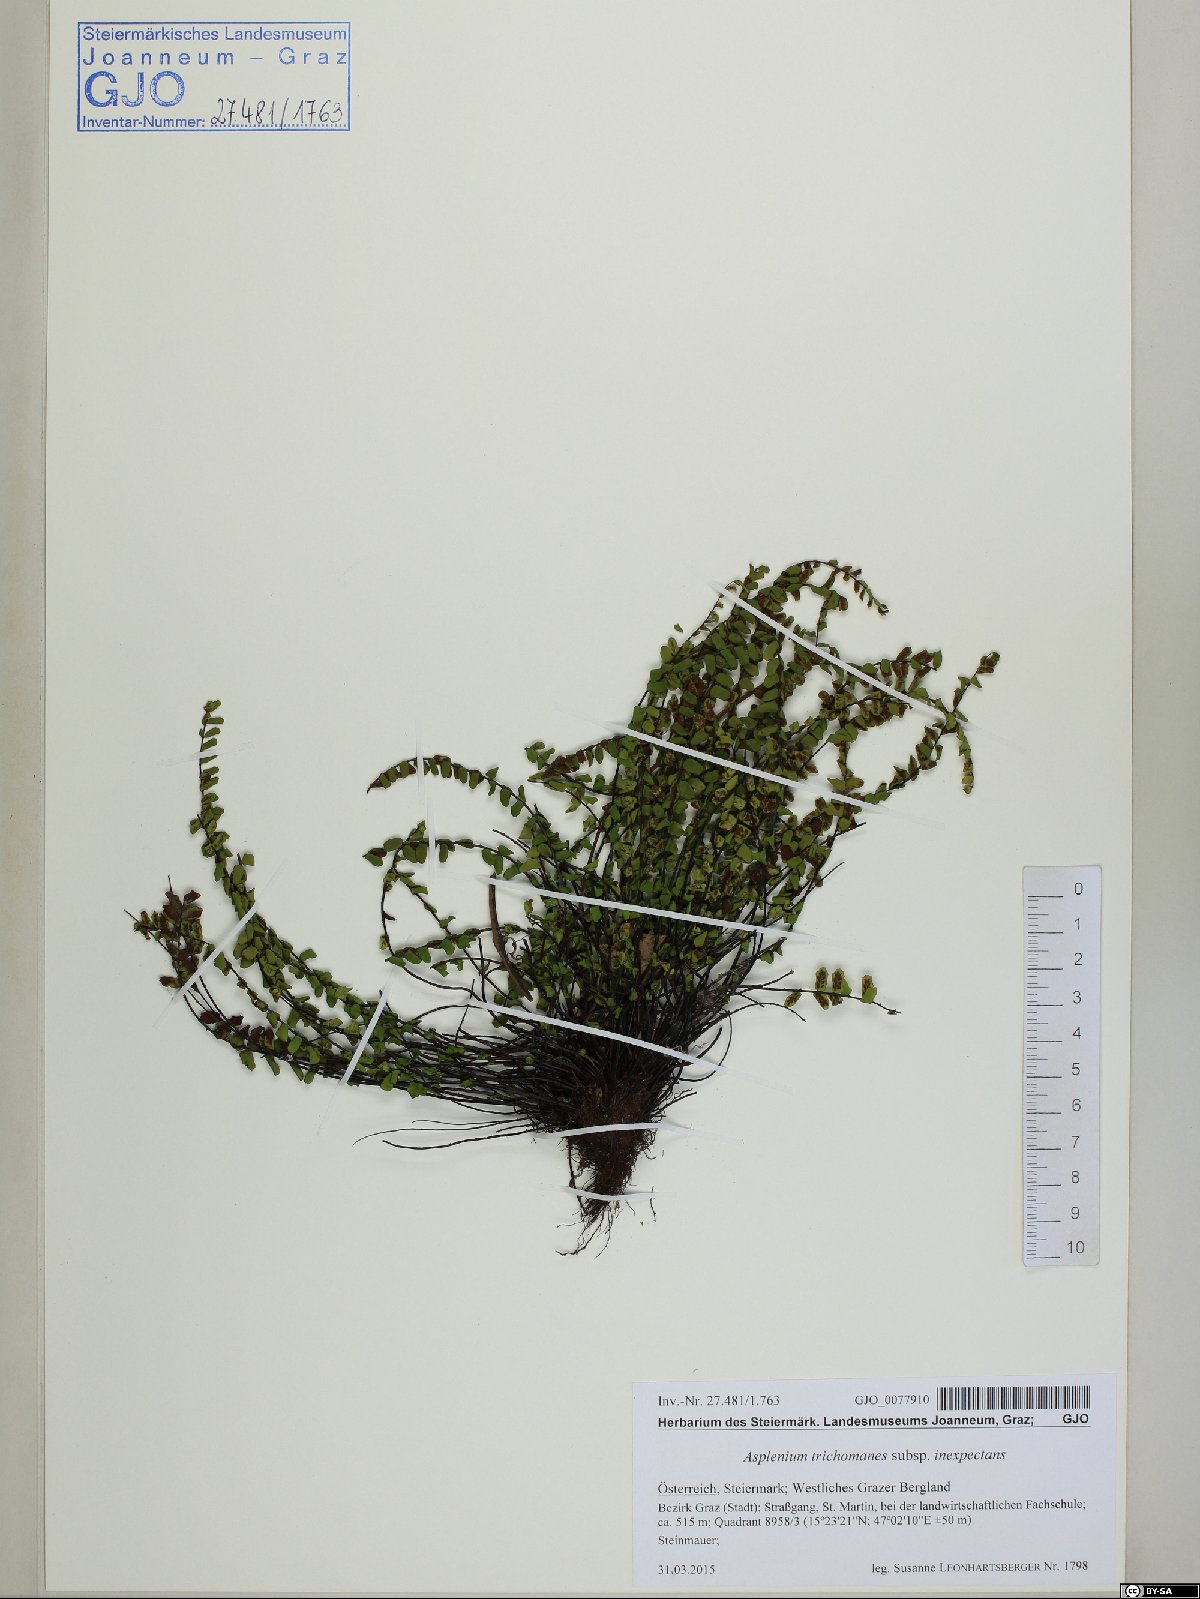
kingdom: Plantae
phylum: Tracheophyta
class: Polypodiopsida
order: Polypodiales
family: Aspleniaceae
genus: Asplenium
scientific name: Asplenium inexpectans
